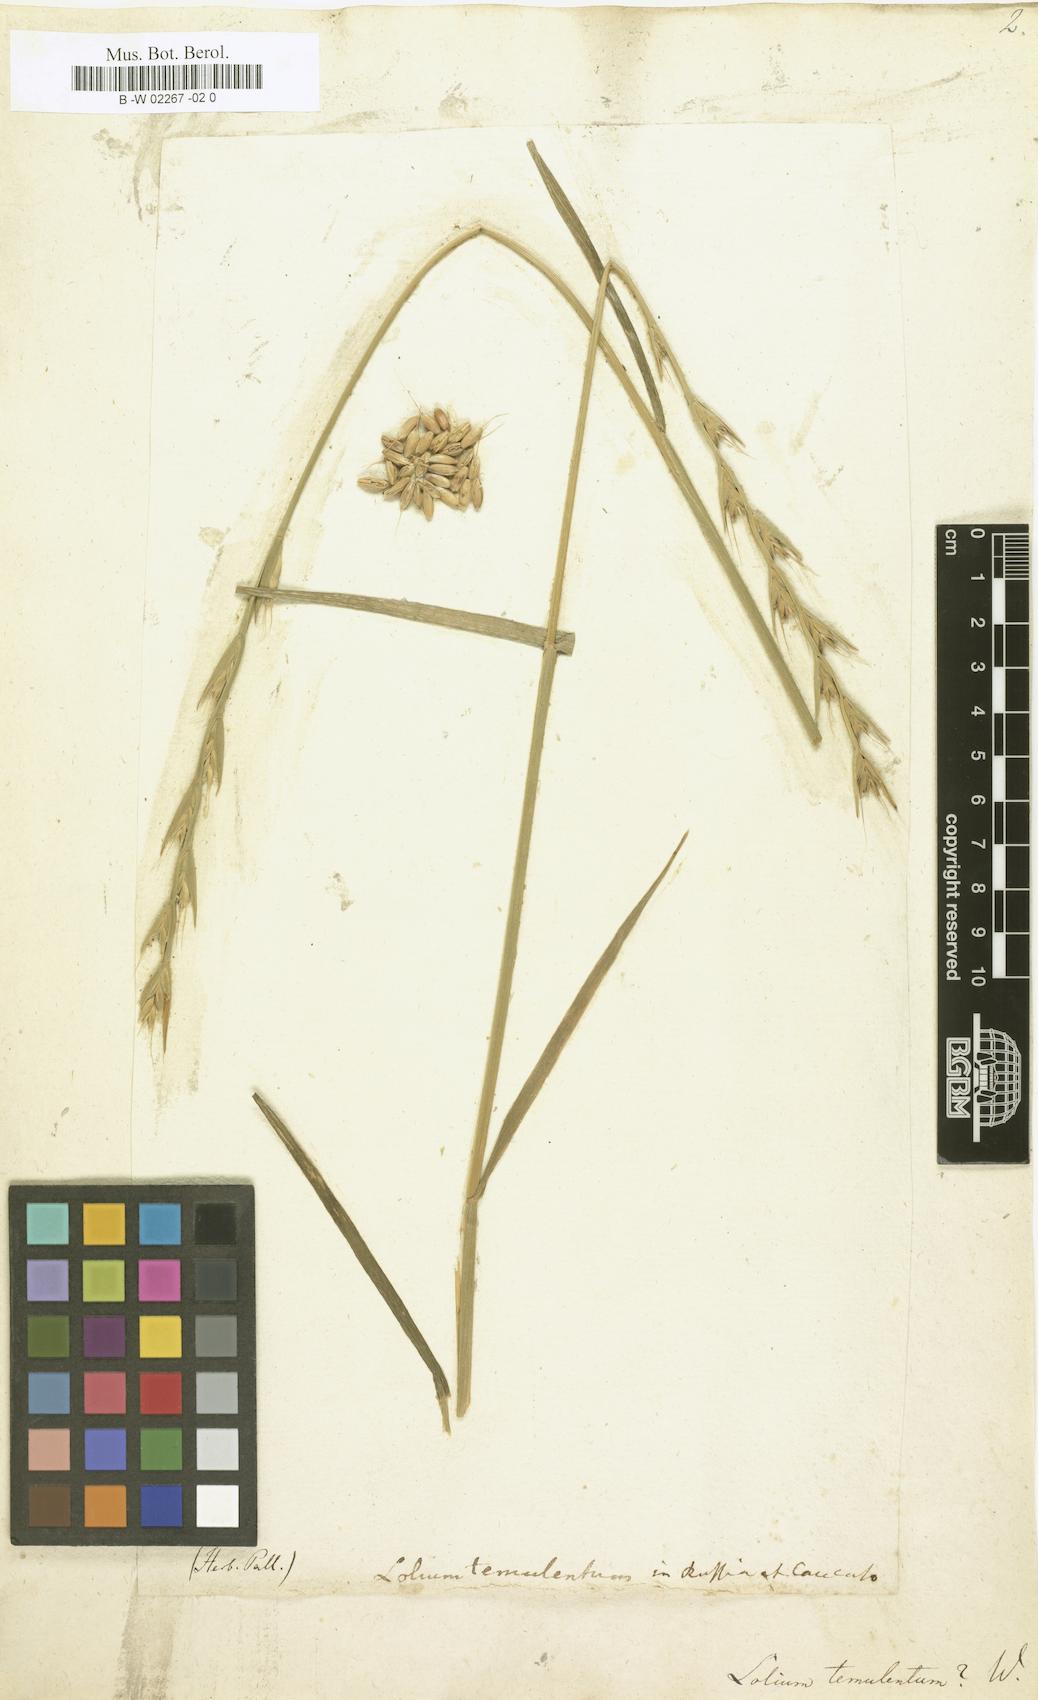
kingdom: Plantae
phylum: Tracheophyta
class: Liliopsida
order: Poales
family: Poaceae
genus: Lolium
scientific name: Lolium temulentum
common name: Darnel
